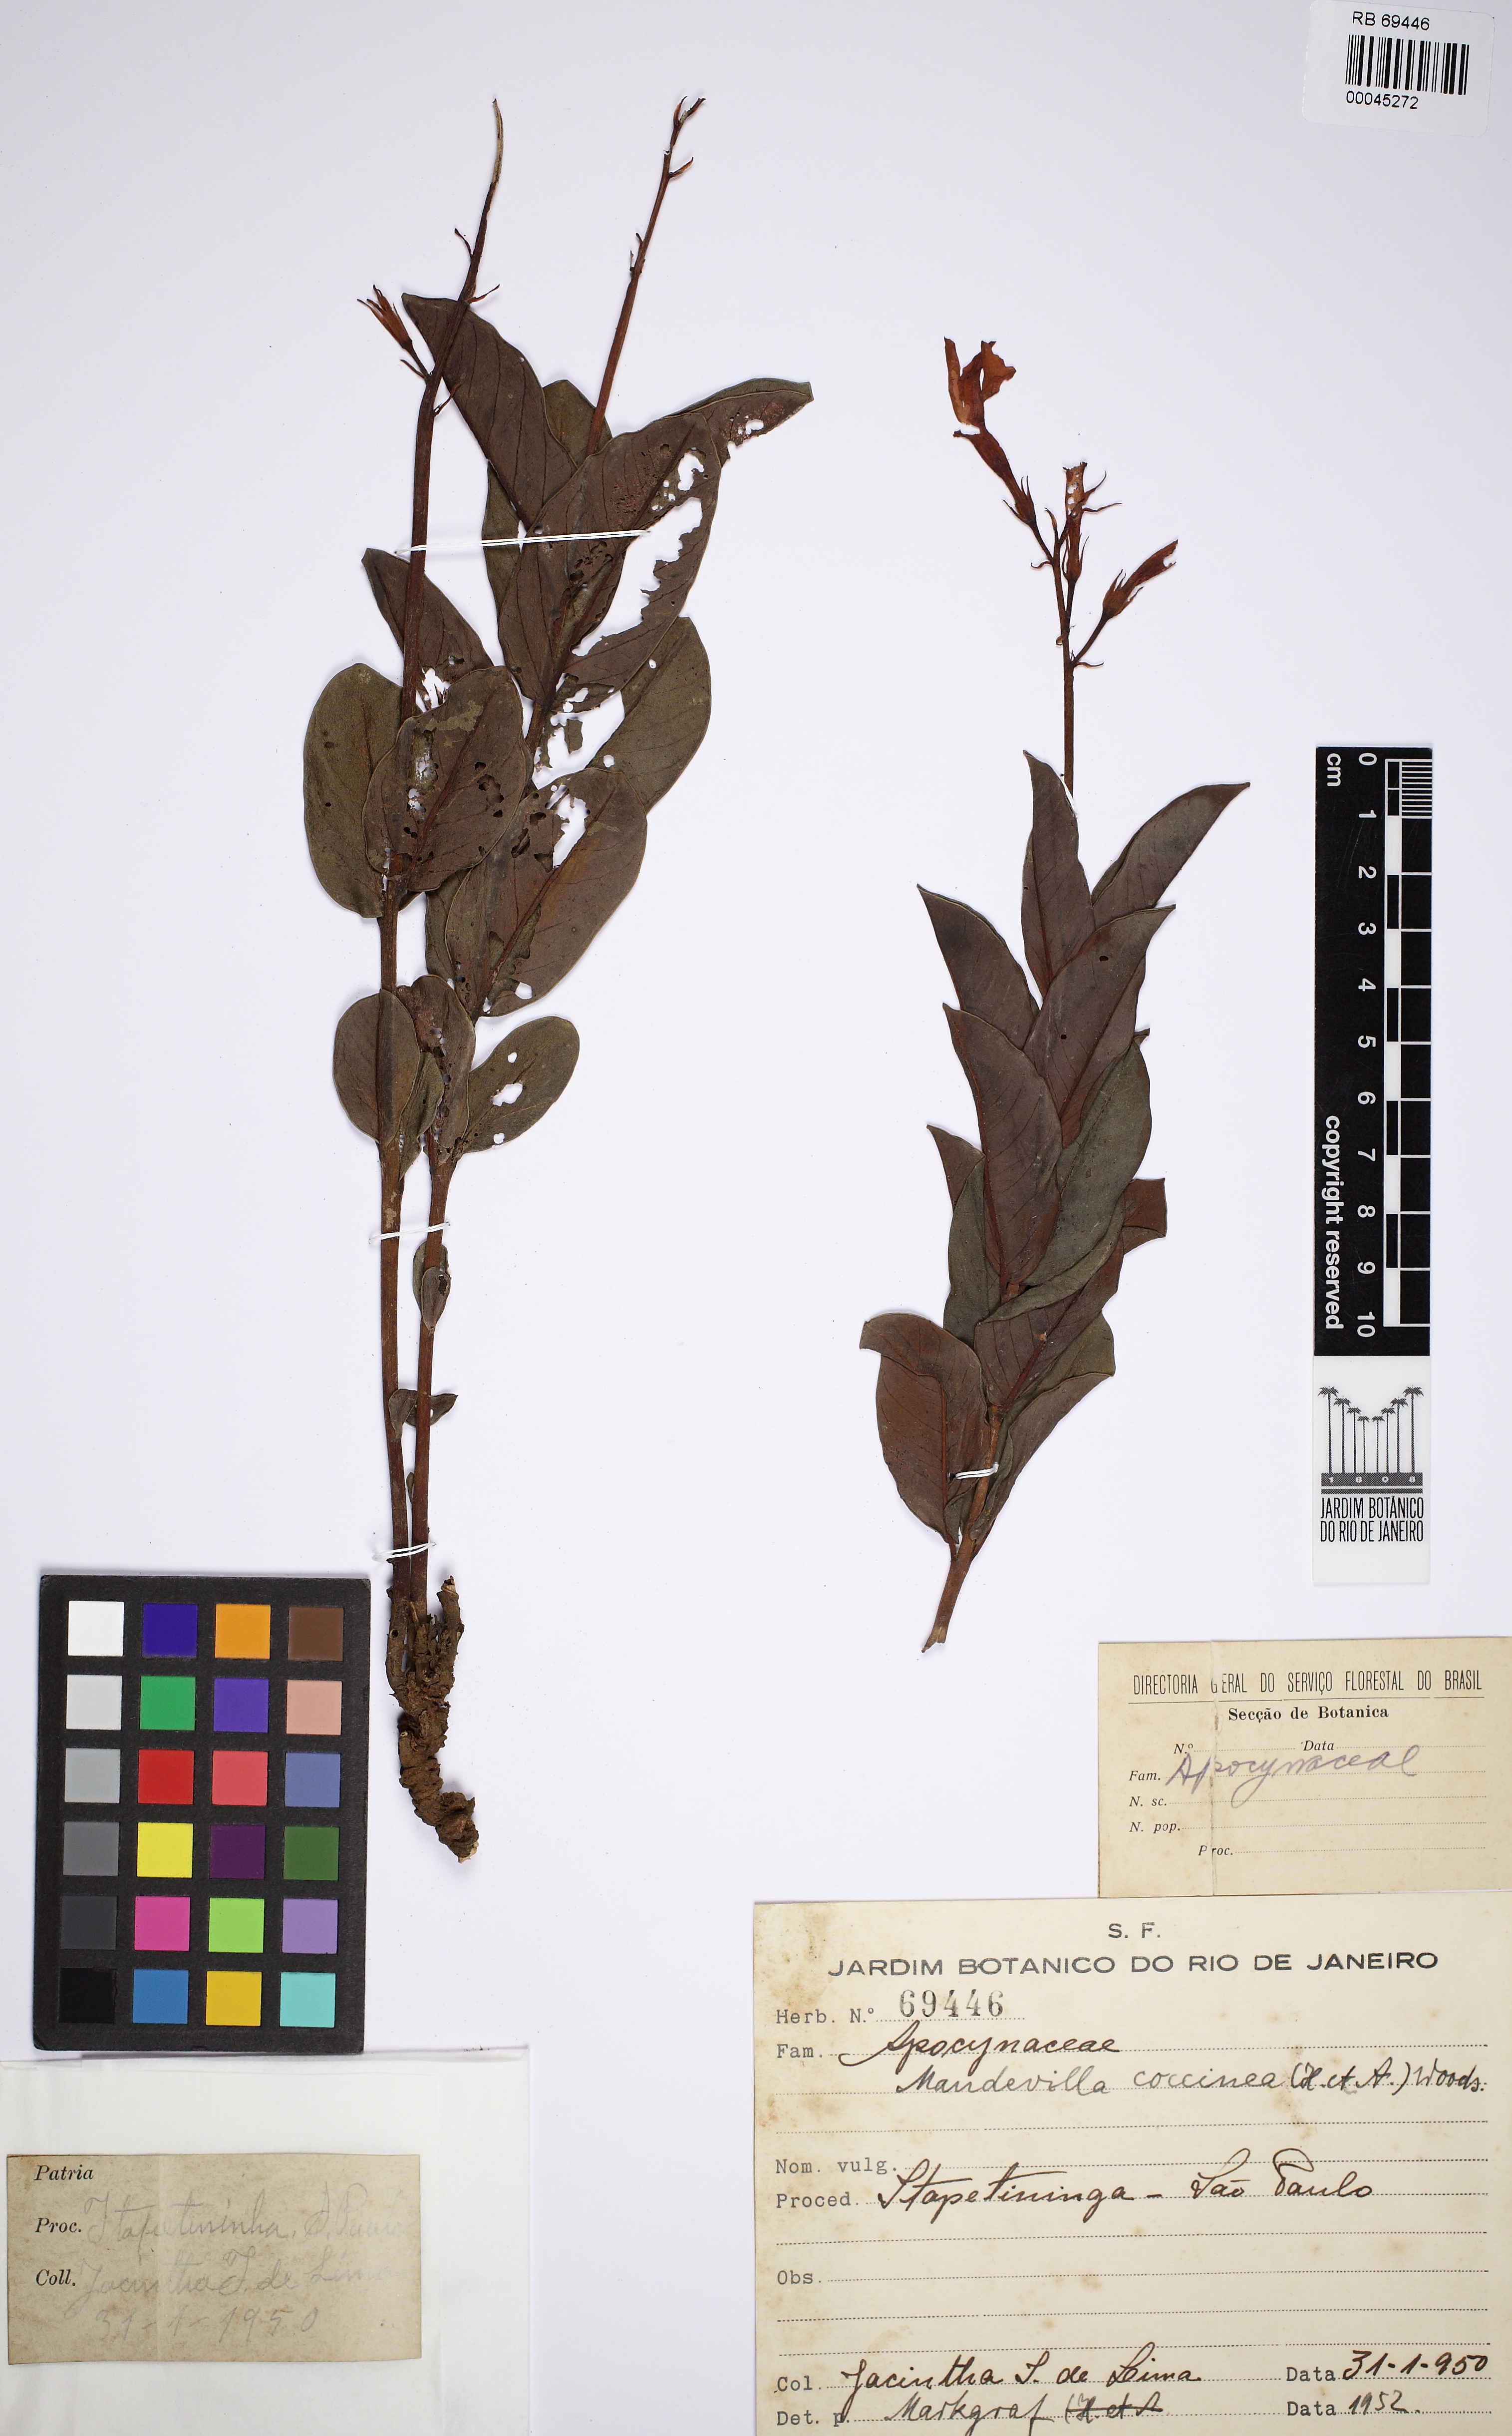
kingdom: Plantae
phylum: Tracheophyta
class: Magnoliopsida
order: Gentianales
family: Apocynaceae
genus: Mandevilla
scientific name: Mandevilla coccinea
